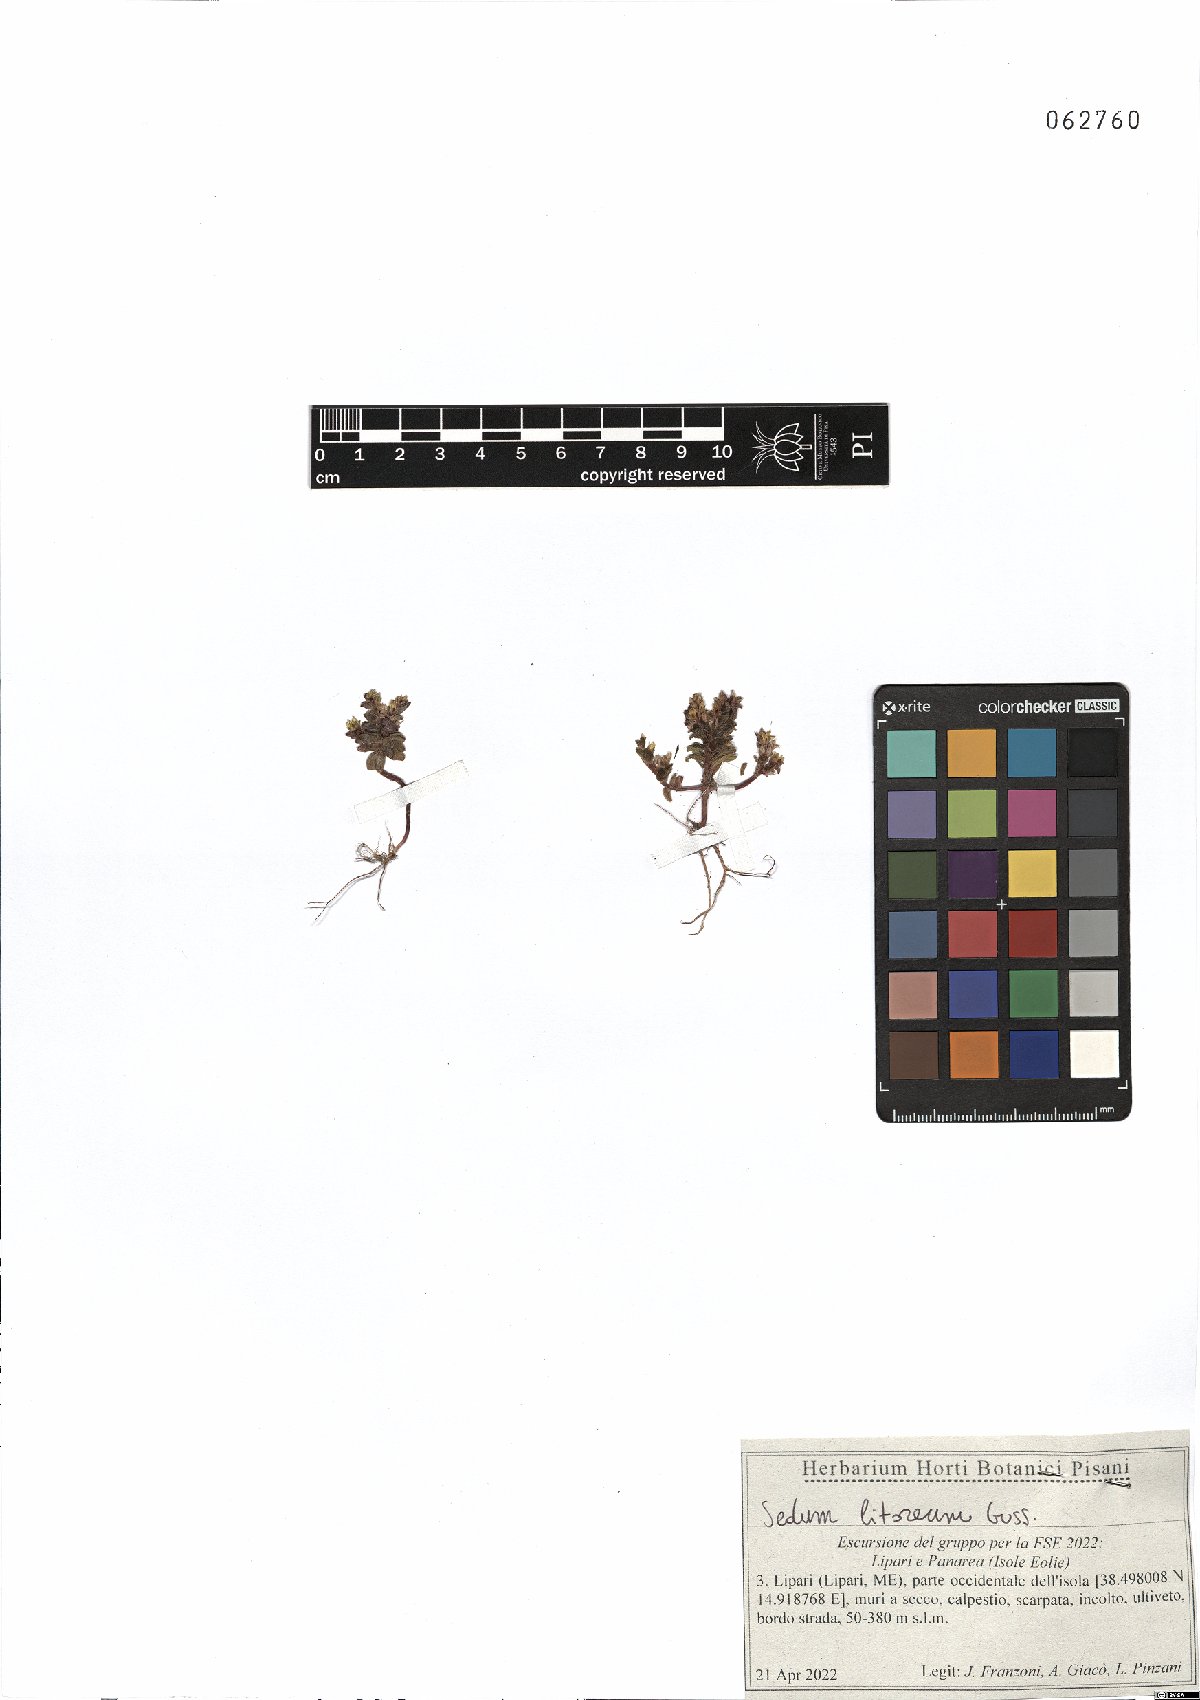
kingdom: Plantae
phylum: Tracheophyta
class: Magnoliopsida
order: Saxifragales
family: Crassulaceae
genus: Sedum
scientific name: Sedum litoreum
